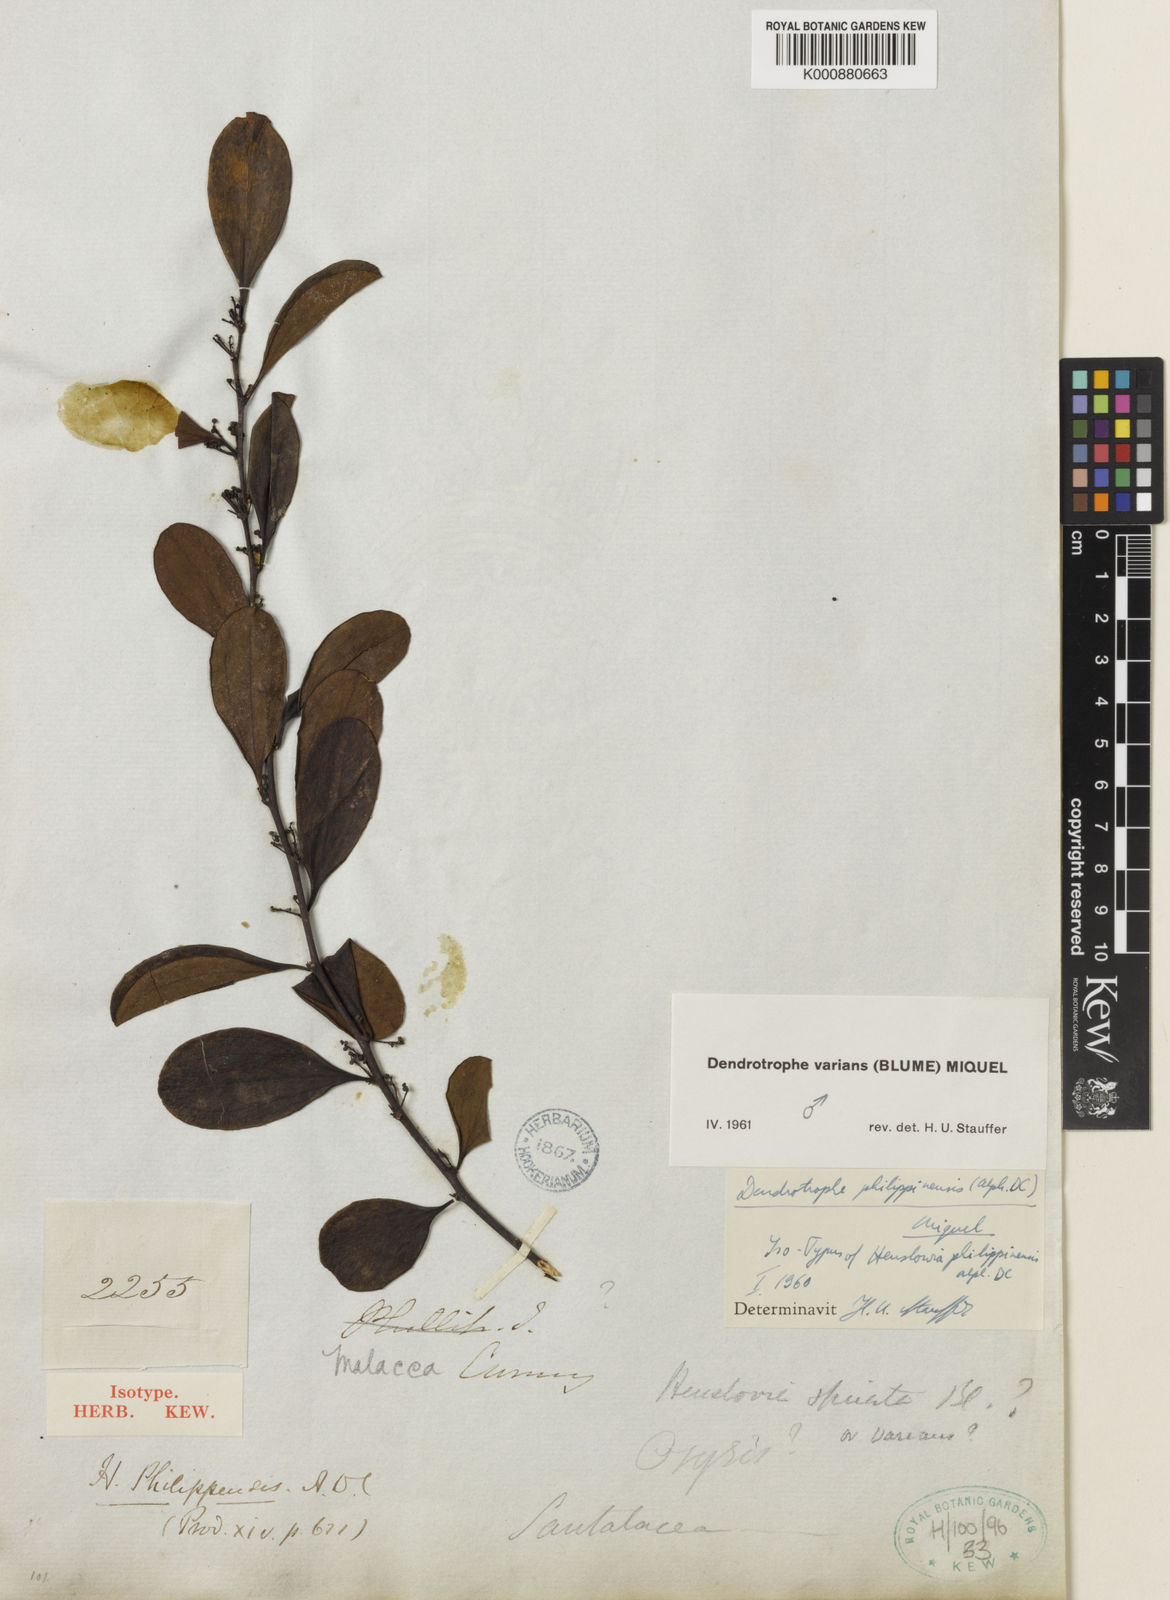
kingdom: Plantae
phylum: Tracheophyta
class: Magnoliopsida
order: Santalales
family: Amphorogynaceae
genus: Dendrotrophe
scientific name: Dendrotrophe varians
